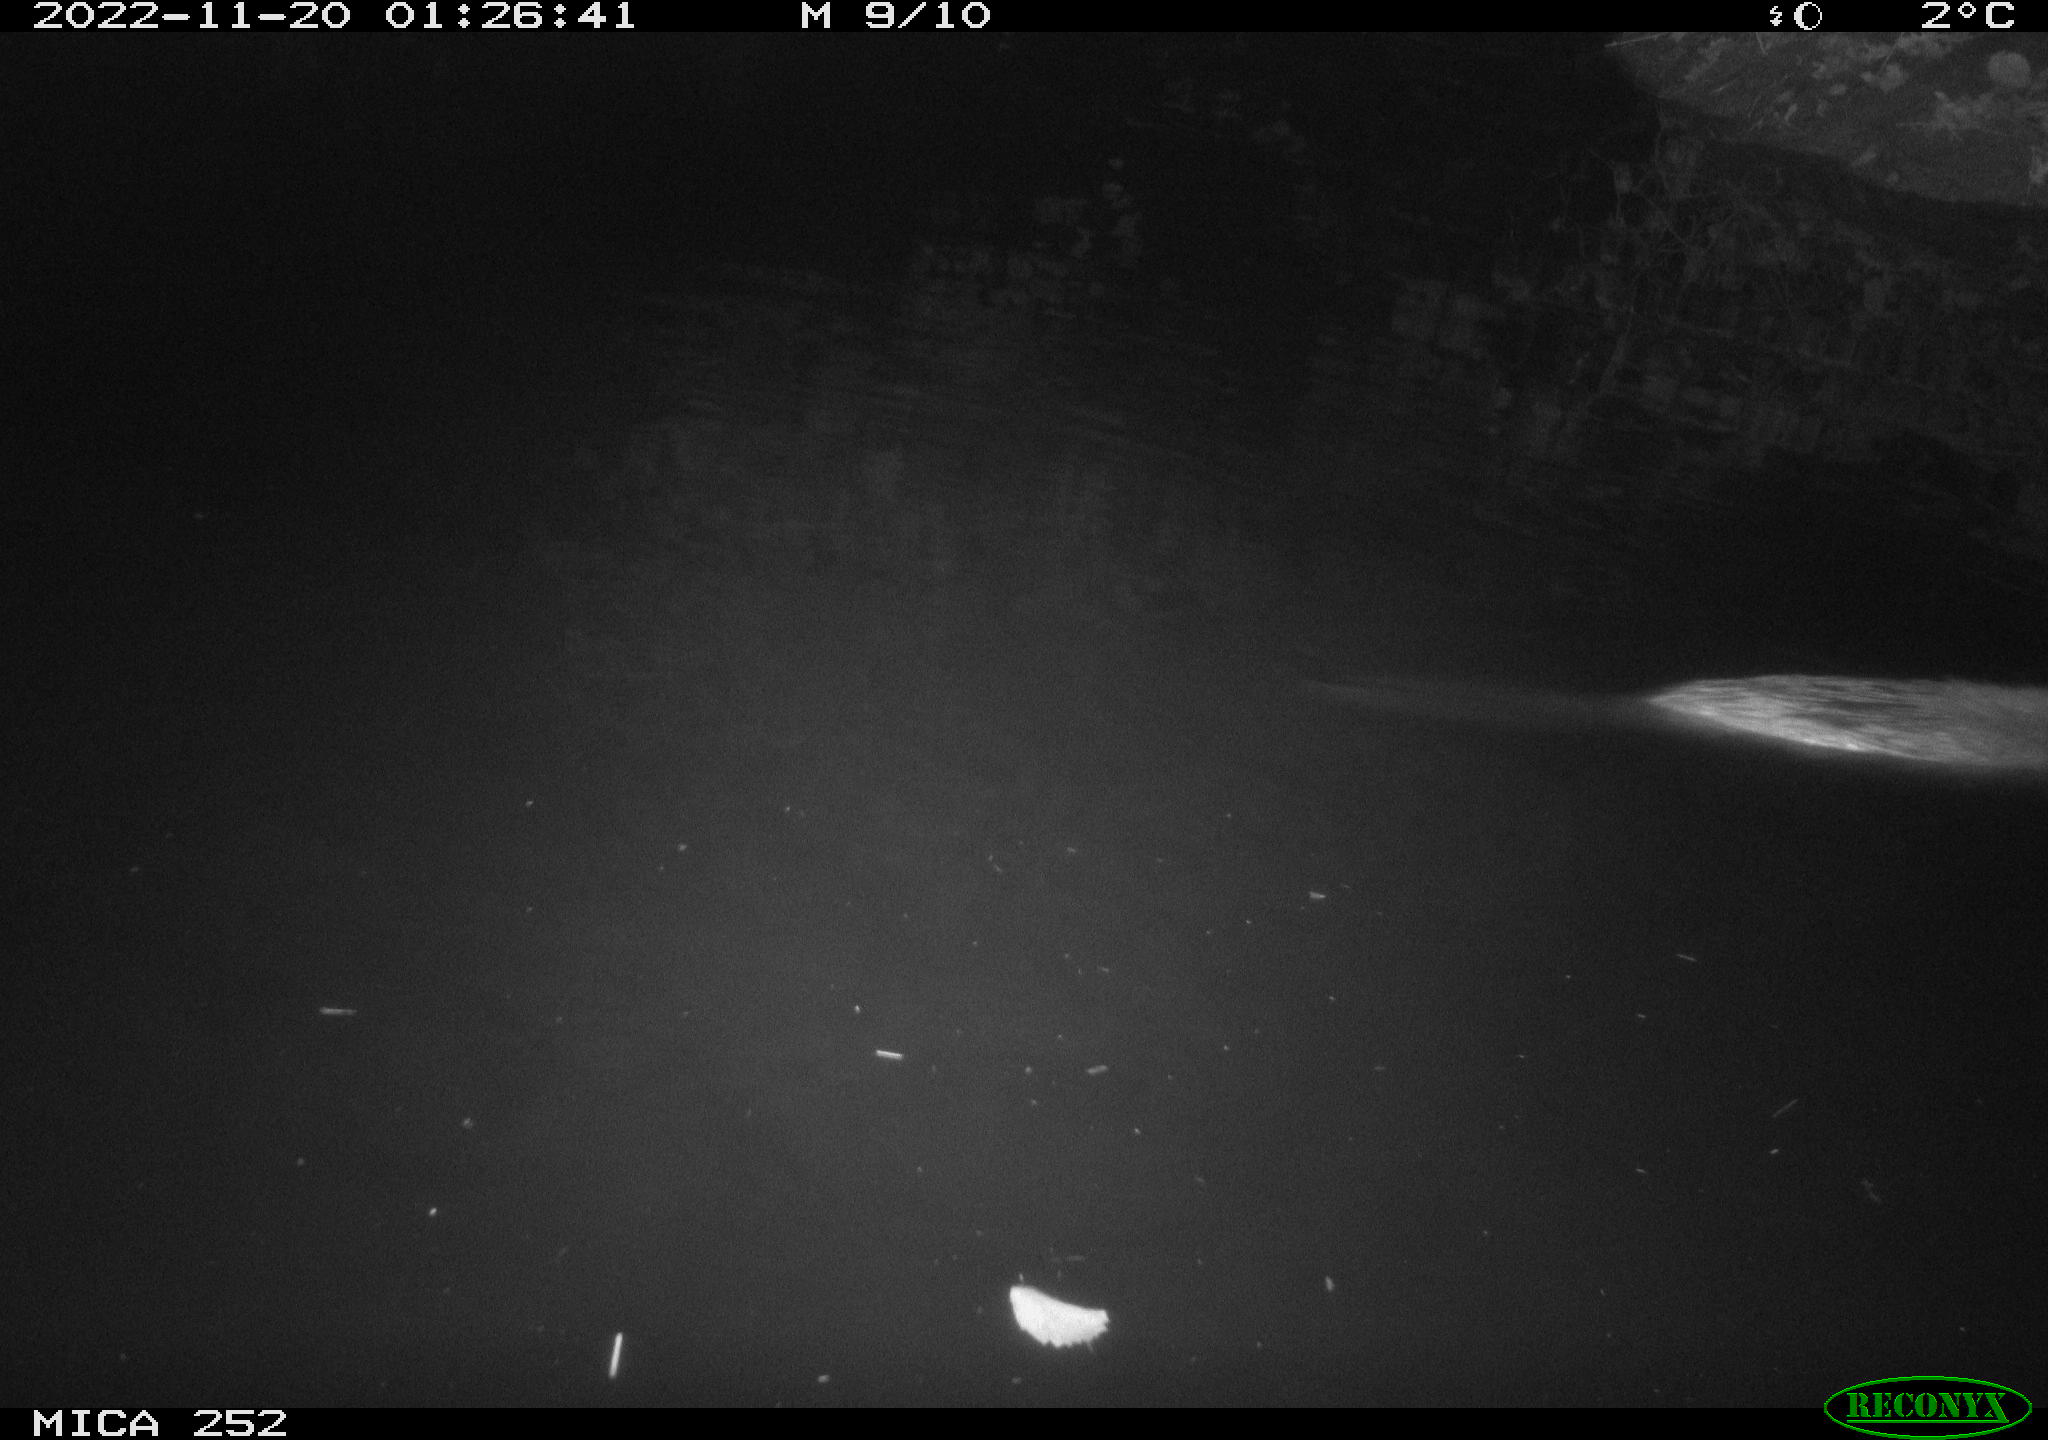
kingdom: Animalia
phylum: Chordata
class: Mammalia
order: Rodentia
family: Castoridae
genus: Castor
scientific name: Castor fiber
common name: Eurasian beaver
